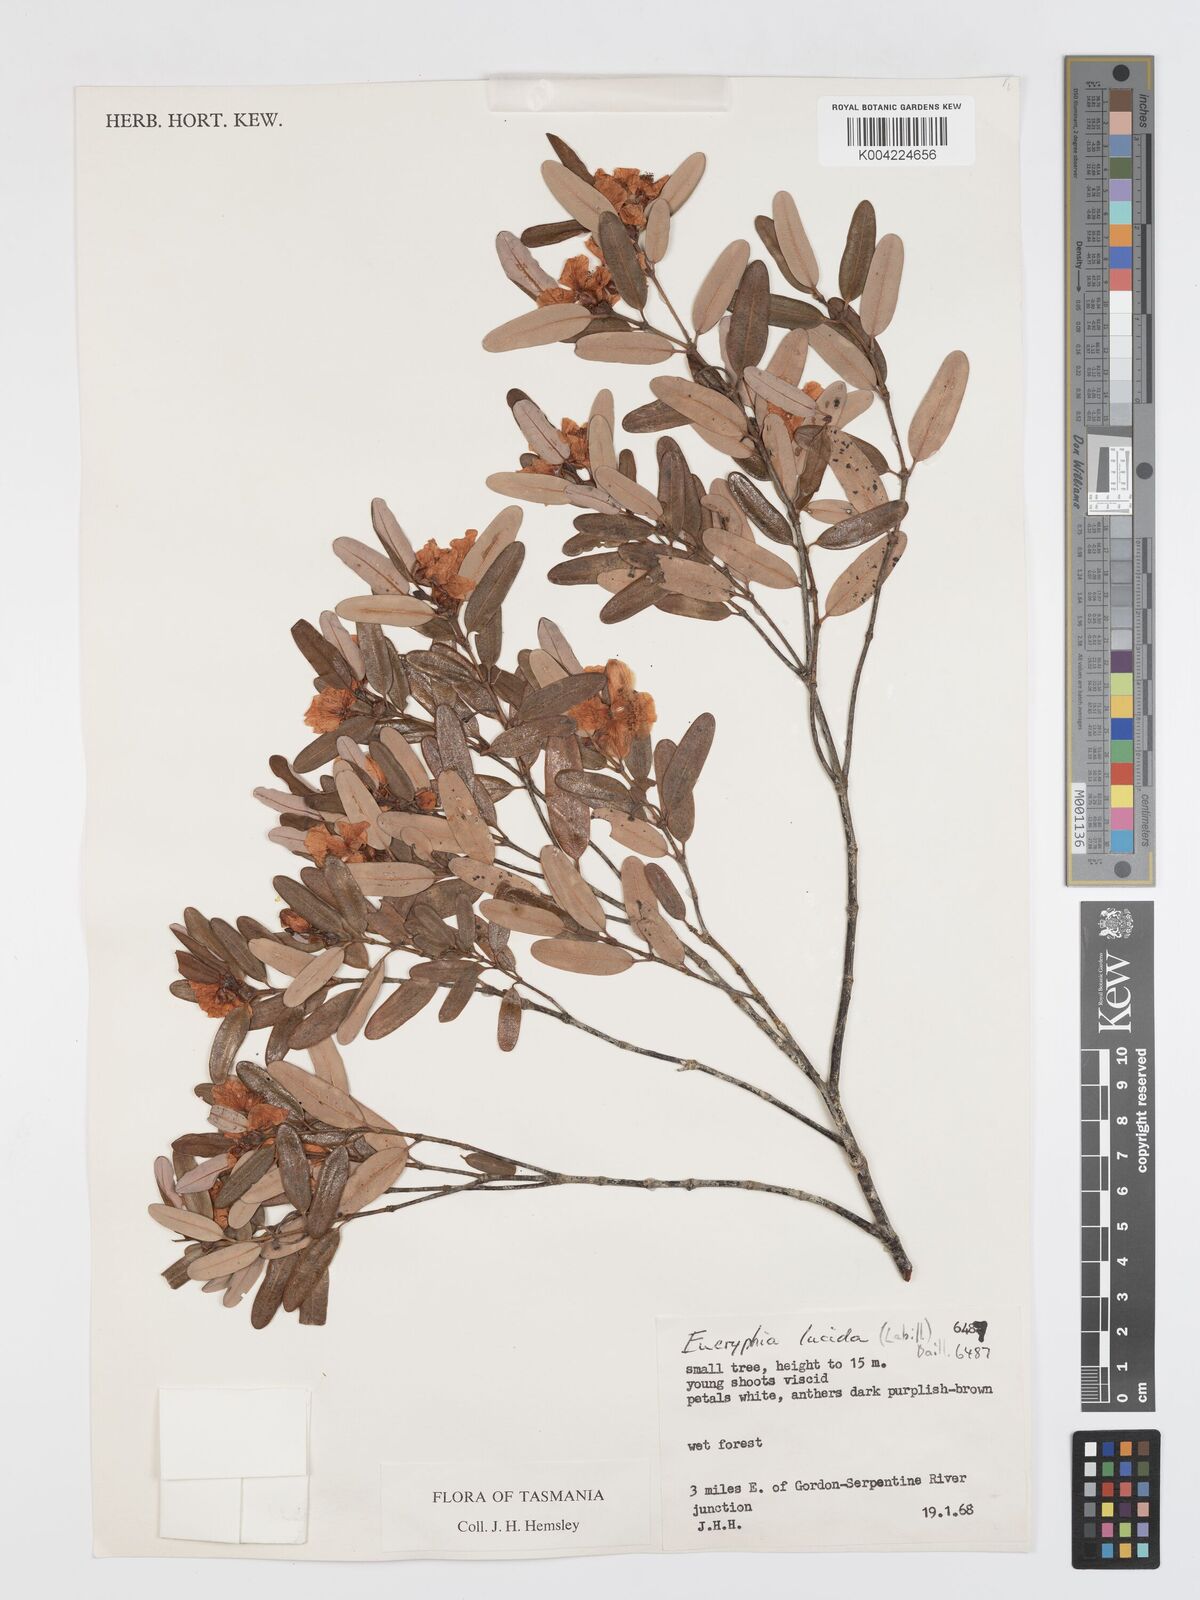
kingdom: Plantae
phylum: Tracheophyta
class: Magnoliopsida
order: Oxalidales
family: Cunoniaceae
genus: Eucryphia
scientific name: Eucryphia lucida
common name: Leatherwood
